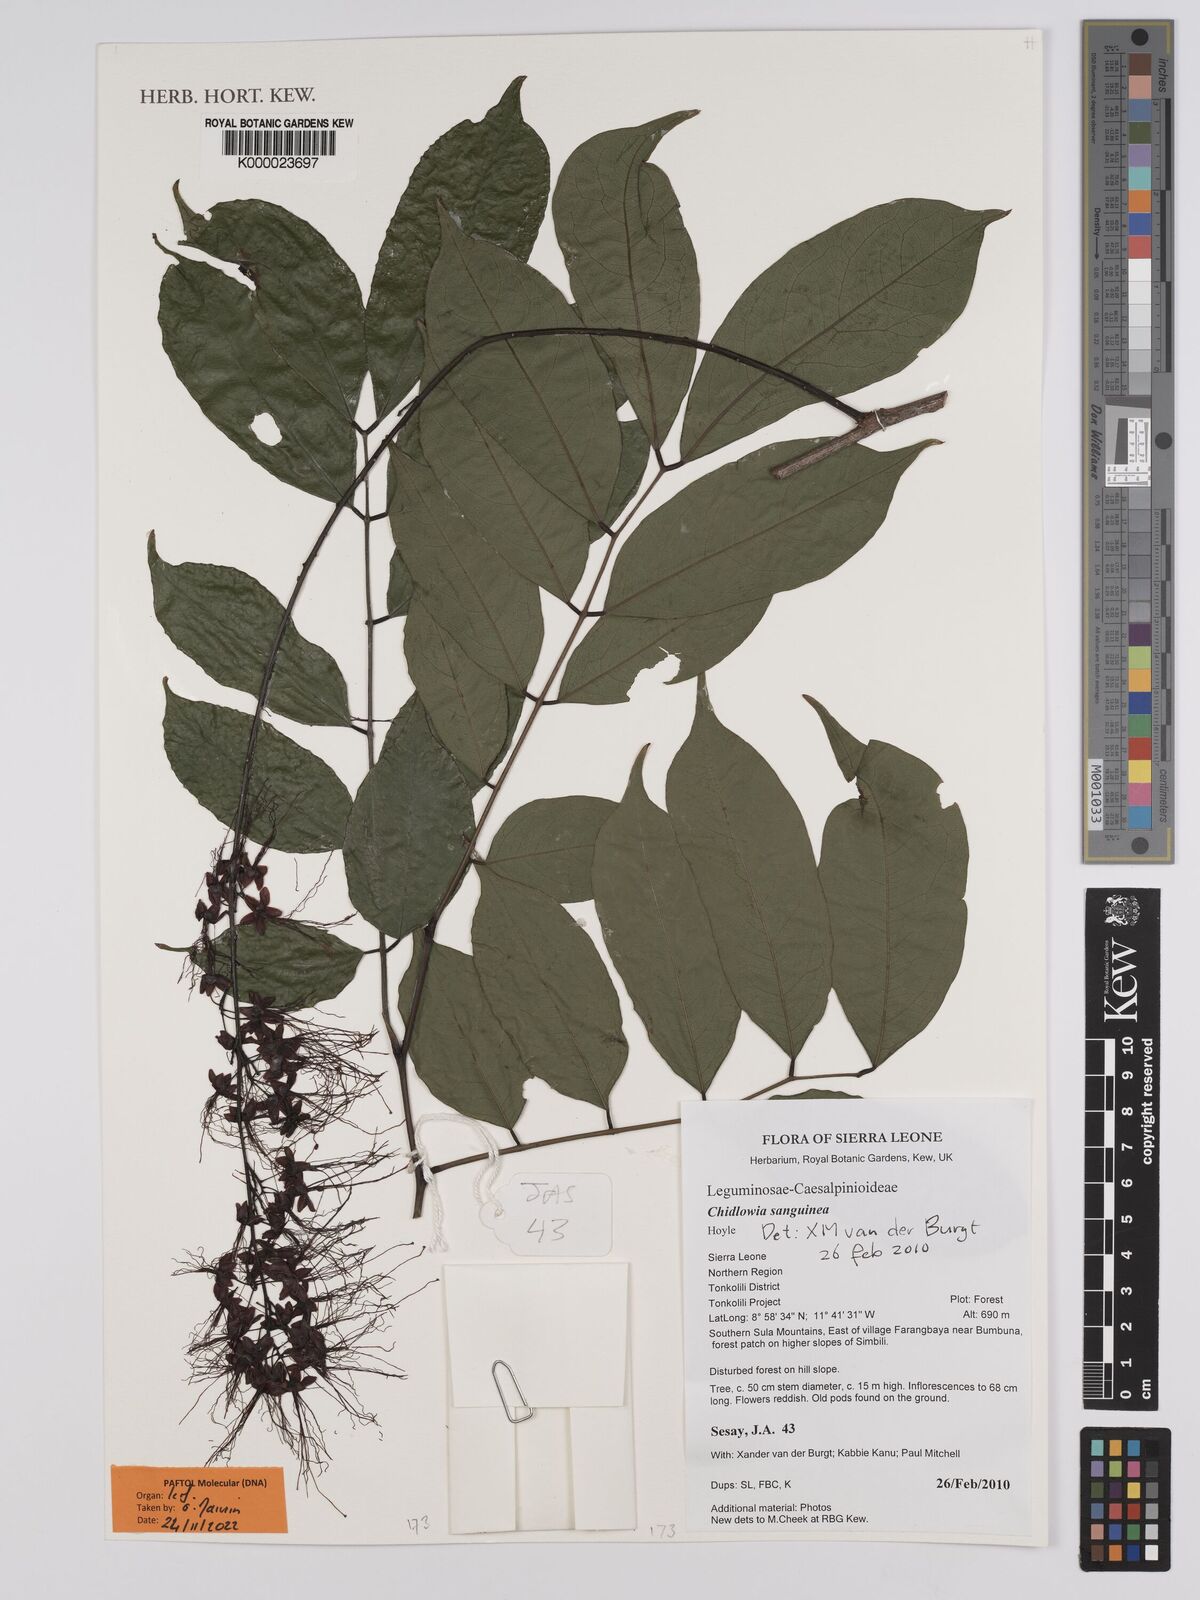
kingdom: Plantae
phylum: Tracheophyta
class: Magnoliopsida
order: Fabales
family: Fabaceae
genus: Chidlowia
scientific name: Chidlowia sanguinea
